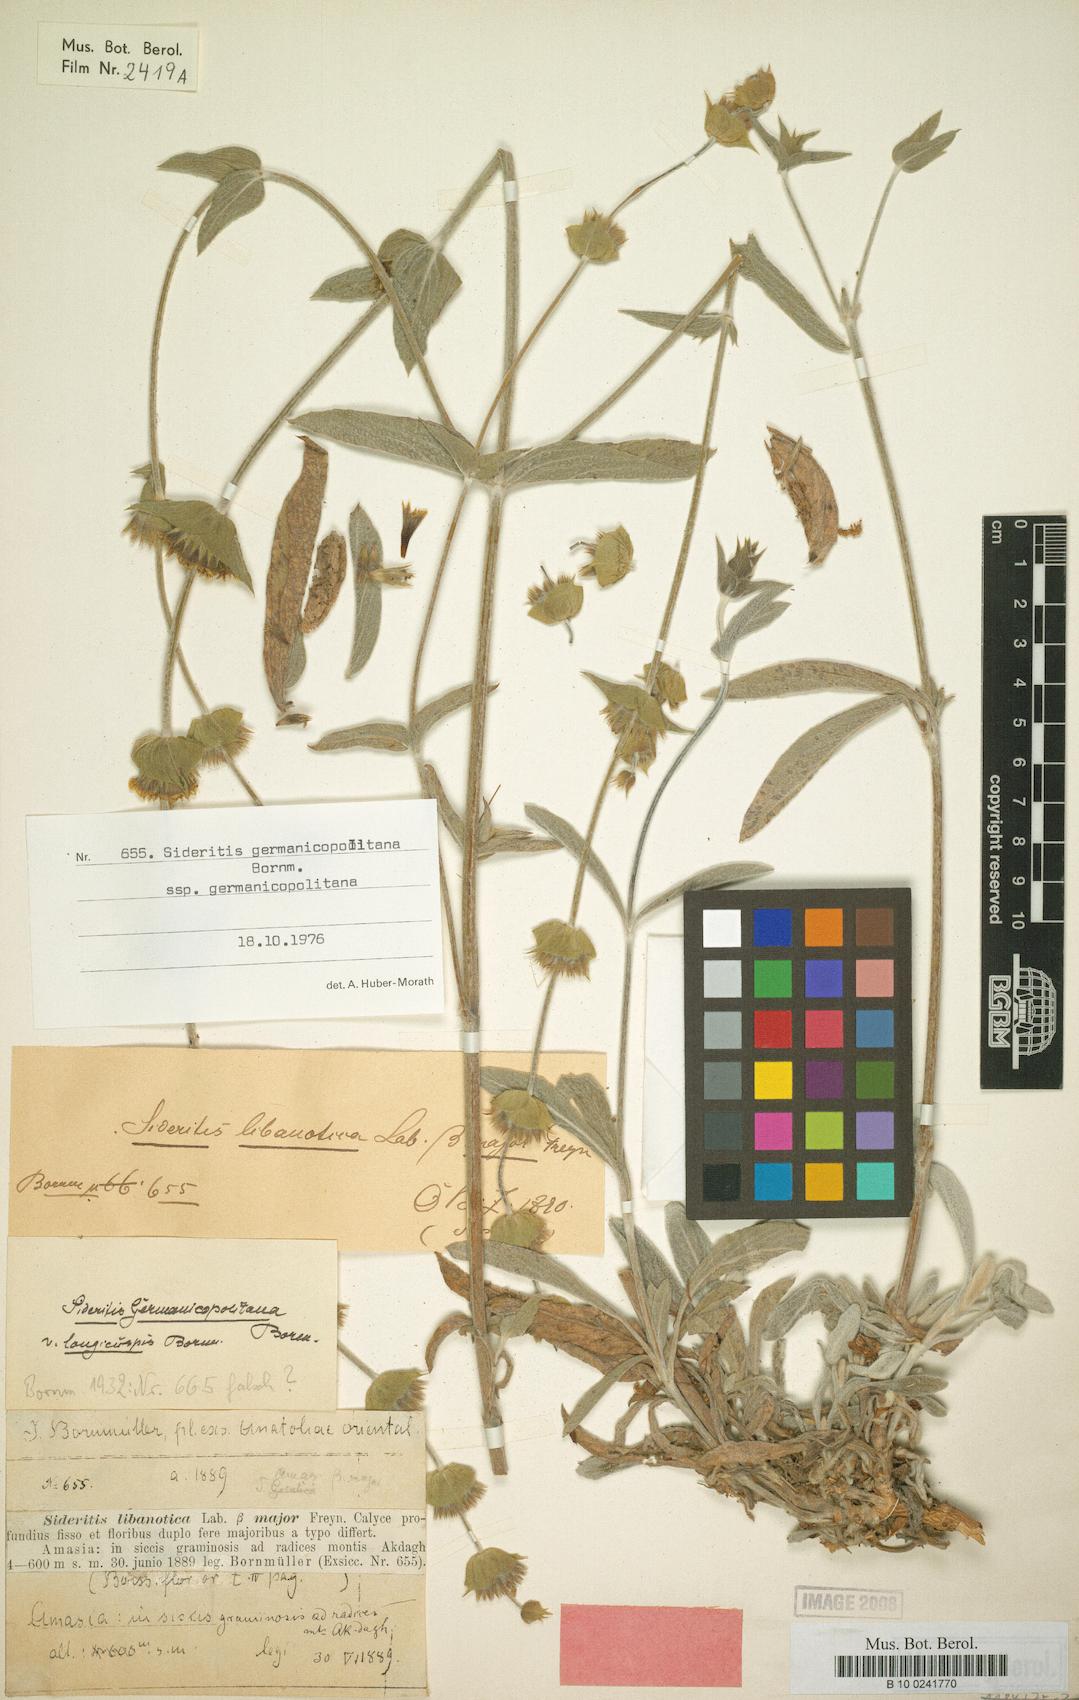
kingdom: Plantae
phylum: Tracheophyta
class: Magnoliopsida
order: Lamiales
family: Lamiaceae
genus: Sideritis
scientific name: Sideritis germanicopolitana
